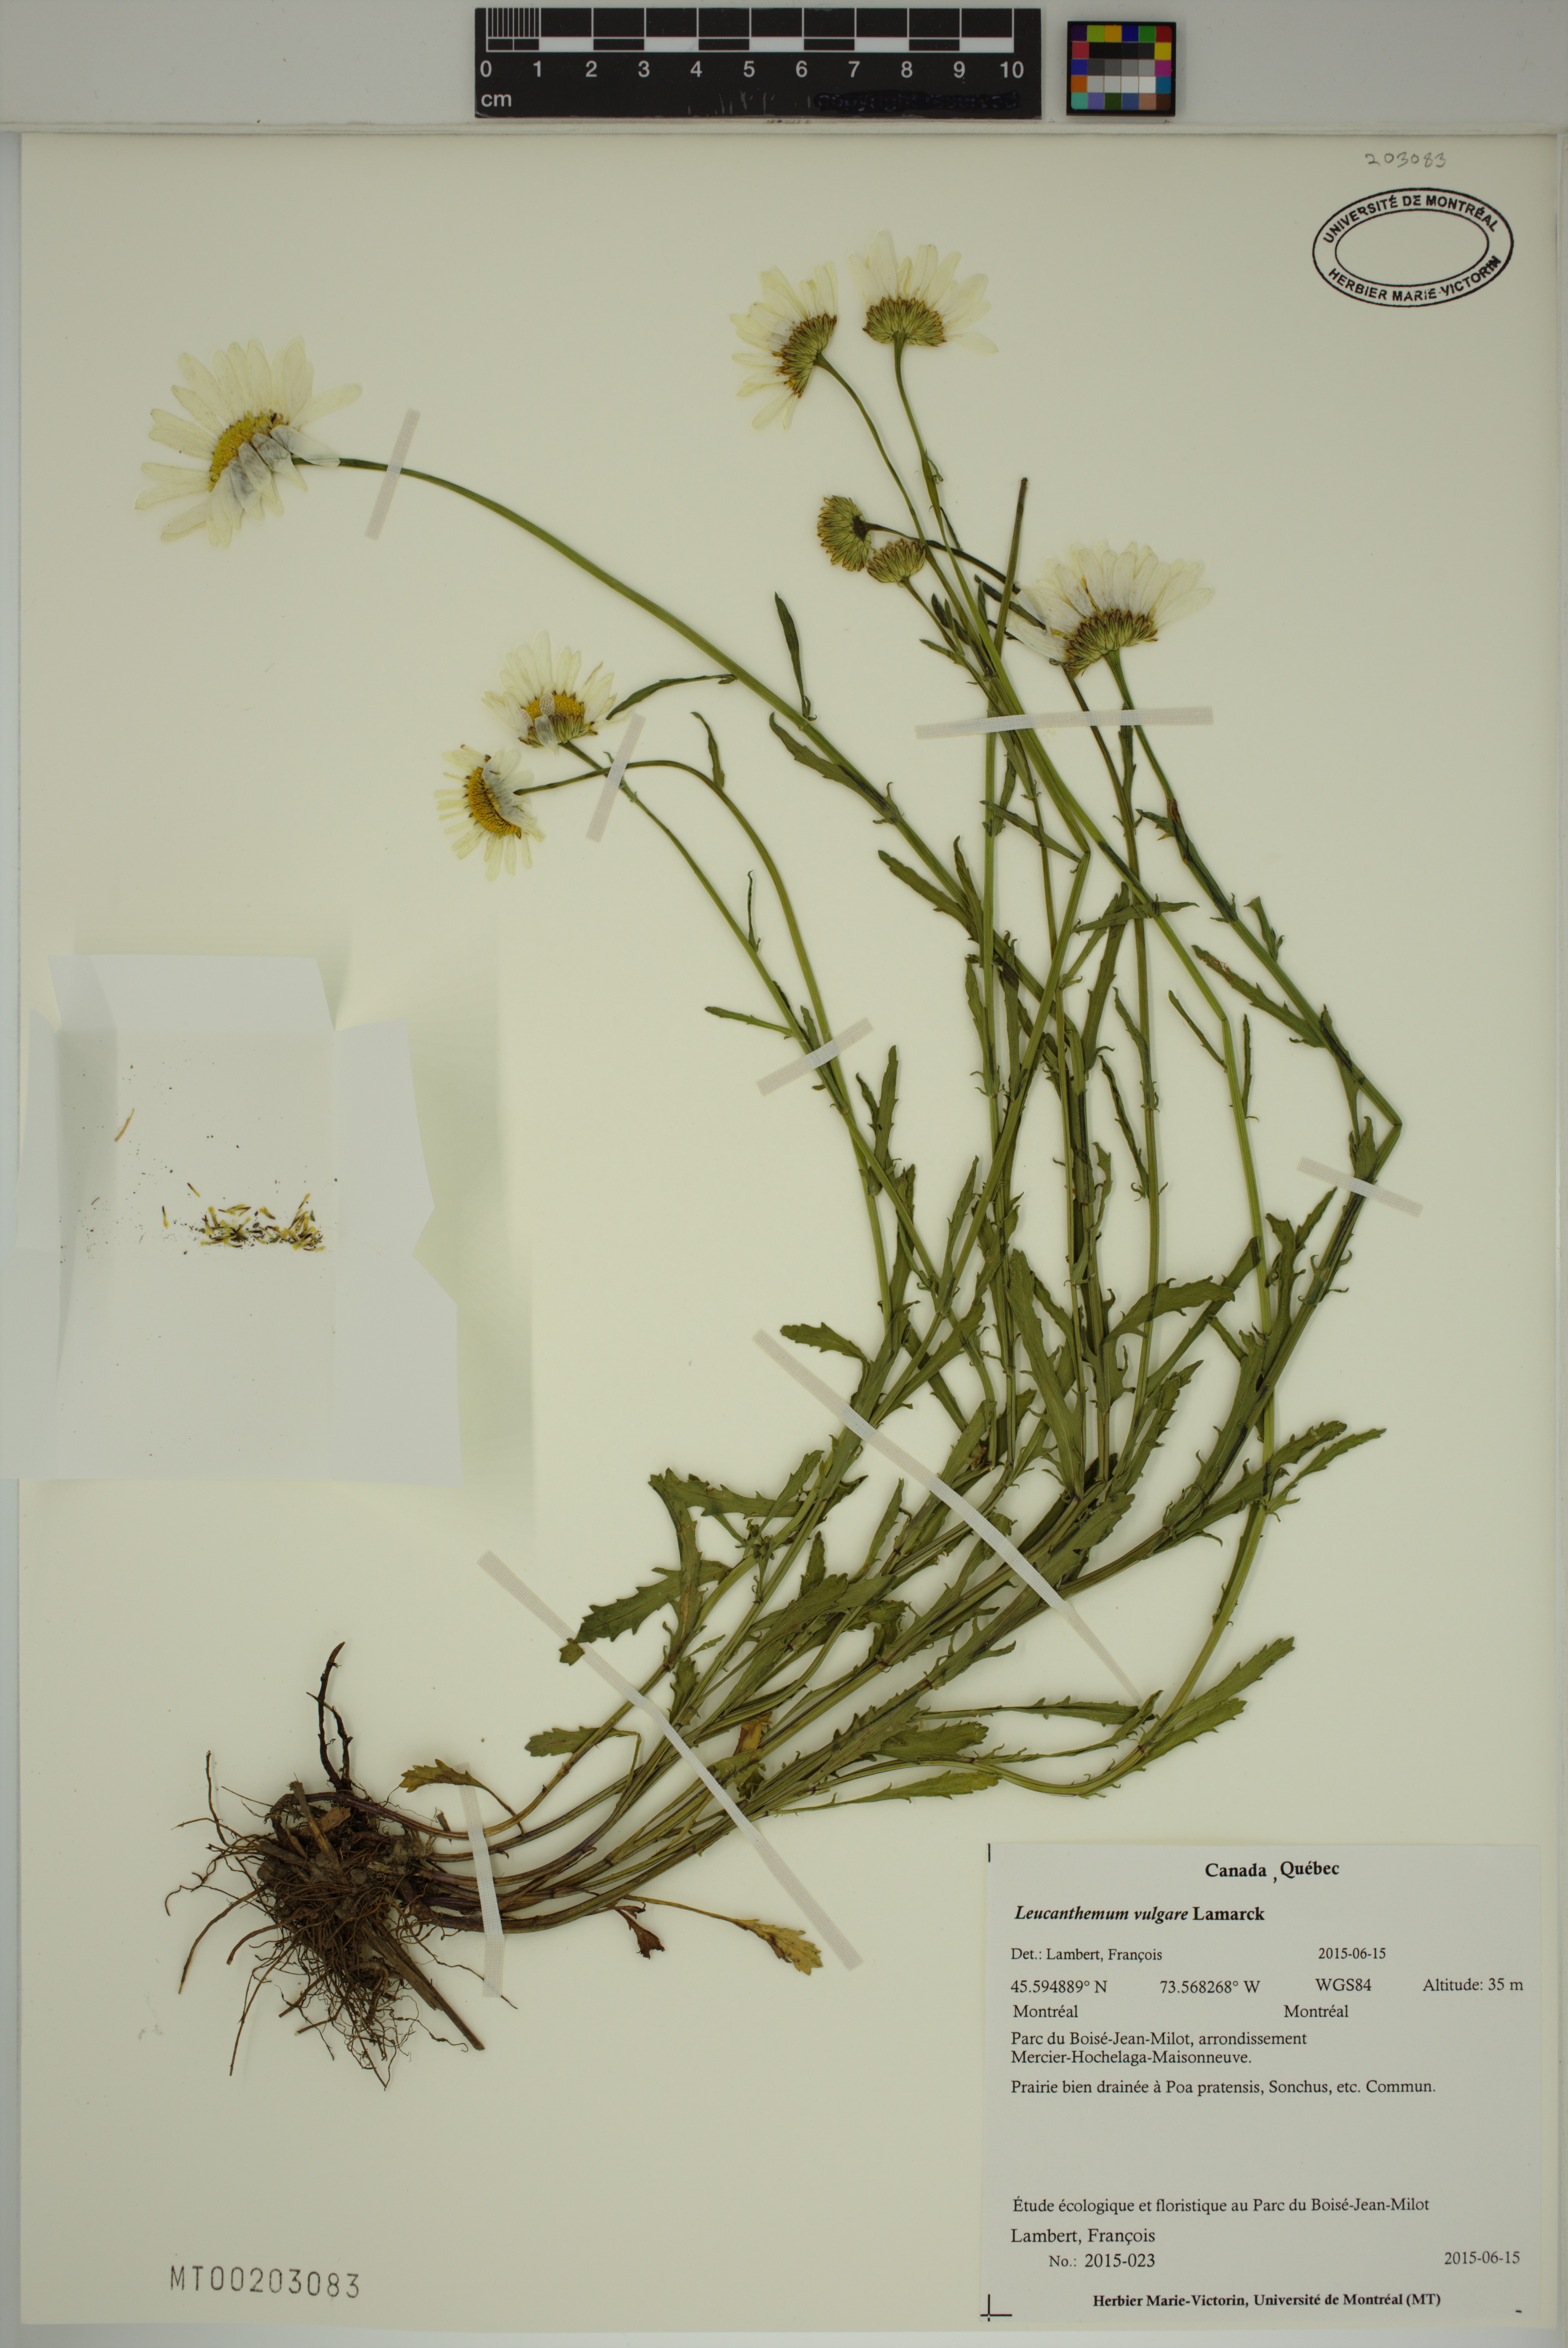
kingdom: Plantae
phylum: Tracheophyta
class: Magnoliopsida
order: Asterales
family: Asteraceae
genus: Leucanthemum
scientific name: Leucanthemum vulgare
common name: Oxeye daisy
